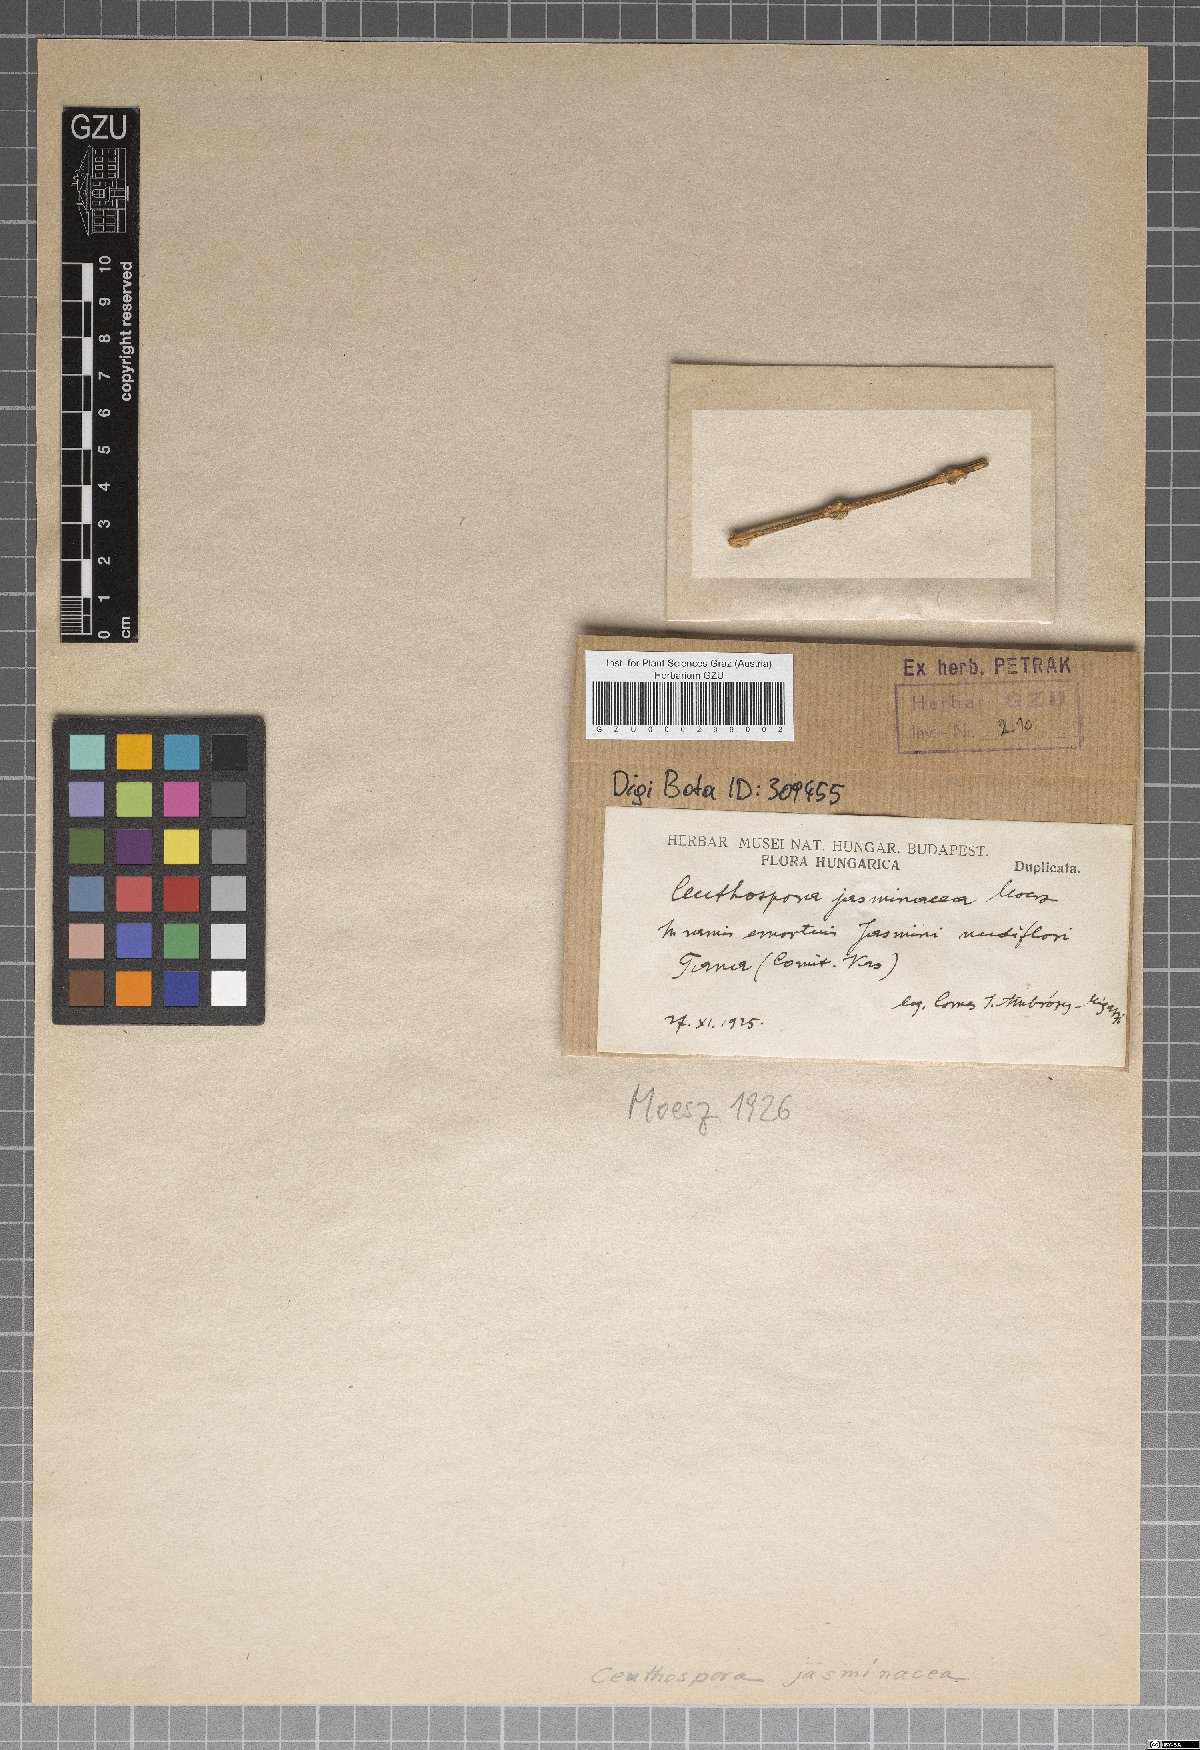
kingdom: Fungi
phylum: Ascomycota
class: Leotiomycetes
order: Phacidiales
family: Phacidiaceae
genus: Ceuthospora
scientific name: Ceuthospora jasminacea
